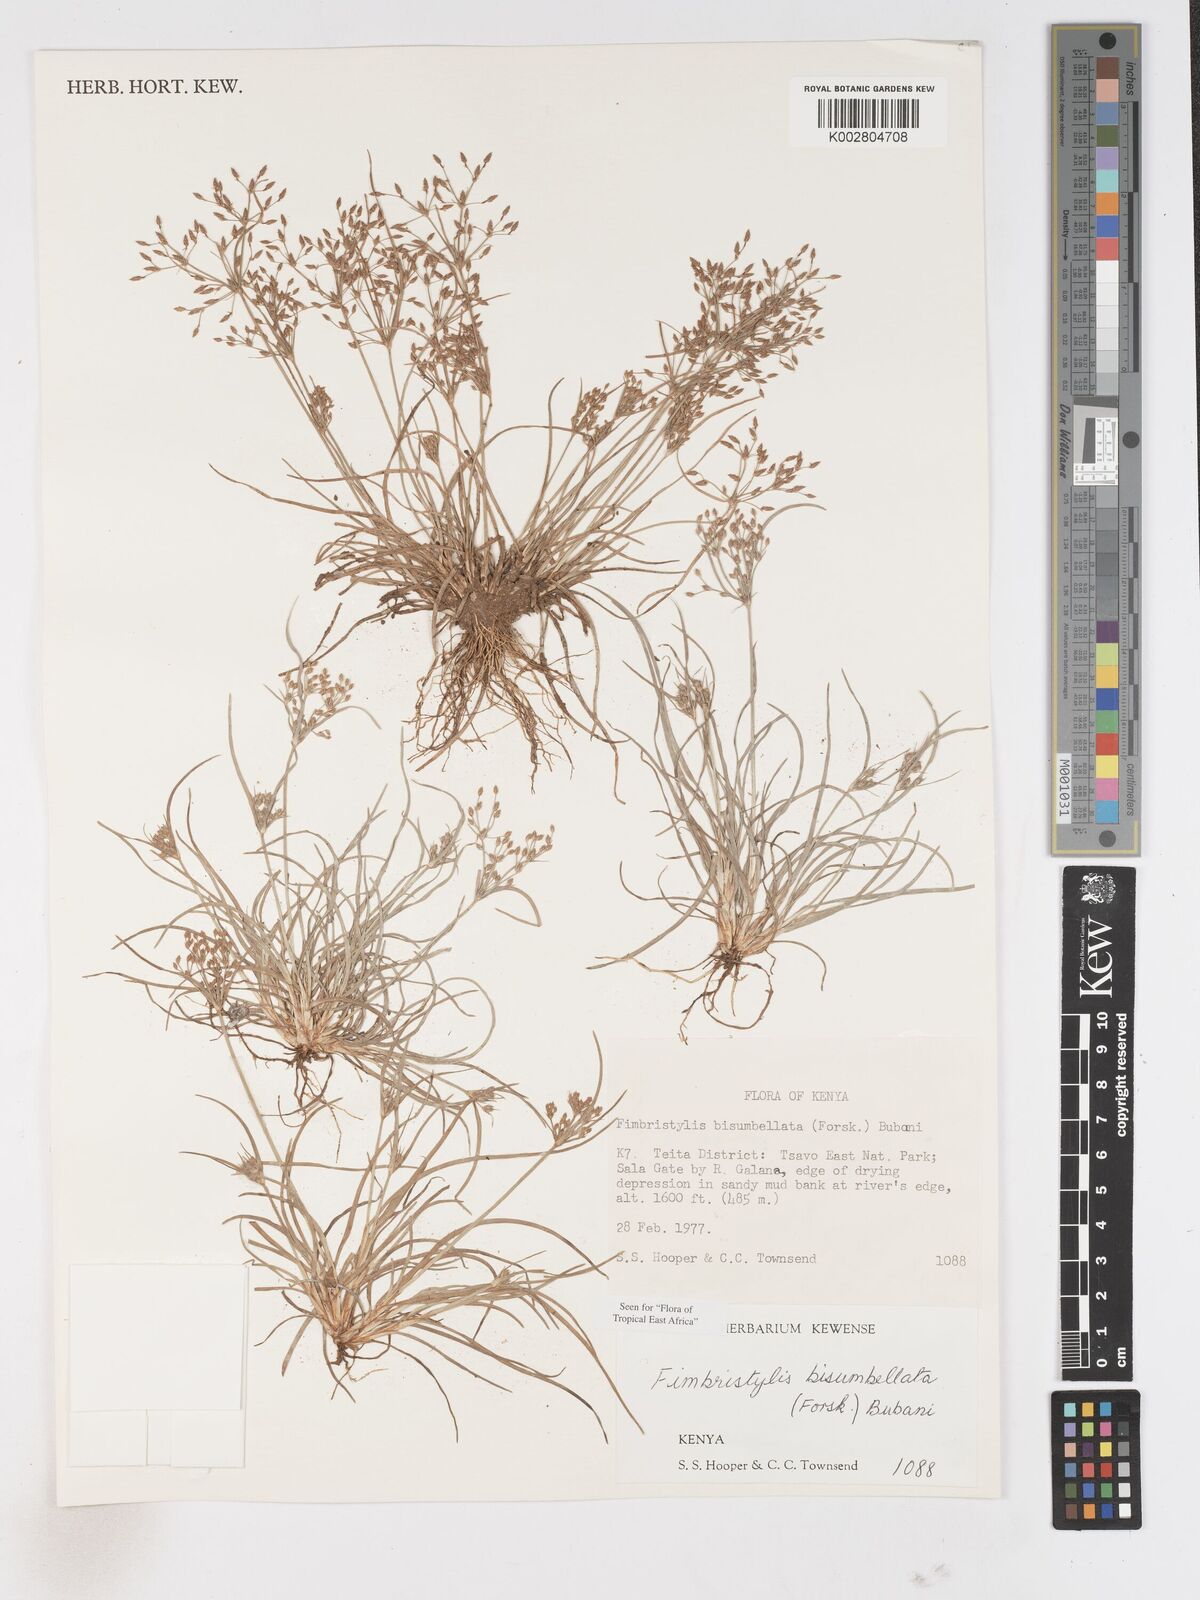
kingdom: Plantae
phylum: Tracheophyta
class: Liliopsida
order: Poales
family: Cyperaceae
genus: Fimbristylis
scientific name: Fimbristylis bisumbellata
